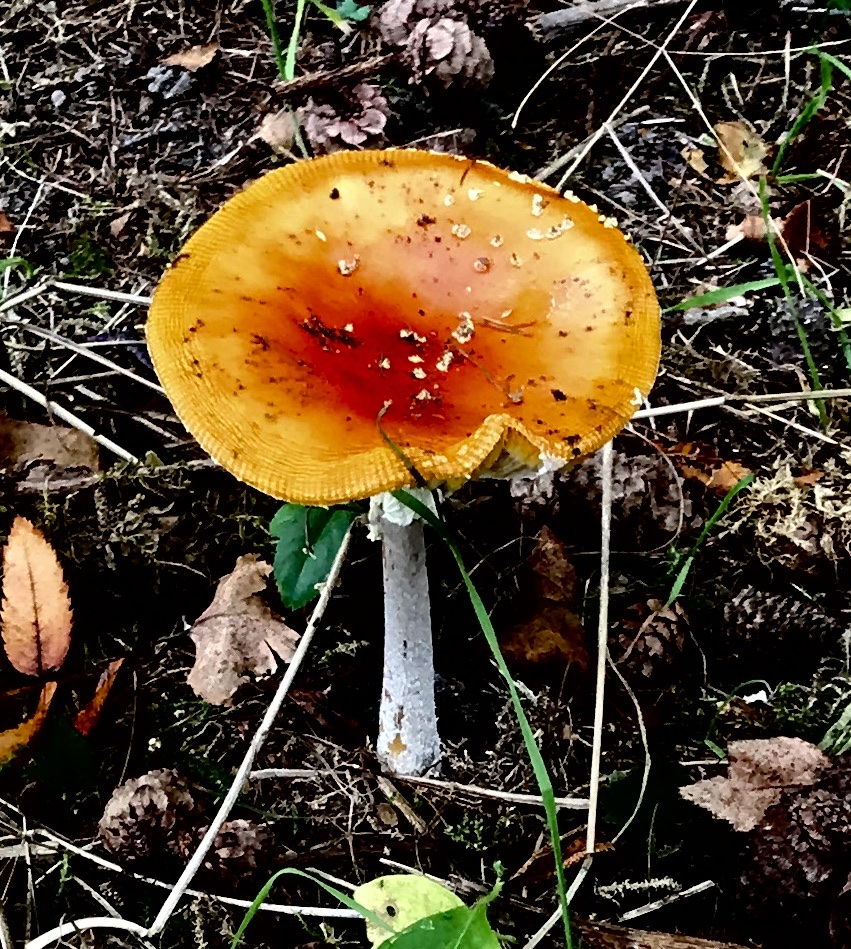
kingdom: Fungi
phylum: Basidiomycota
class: Agaricomycetes
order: Agaricales
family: Amanitaceae
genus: Amanita
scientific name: Amanita muscaria
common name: rød fluesvamp
